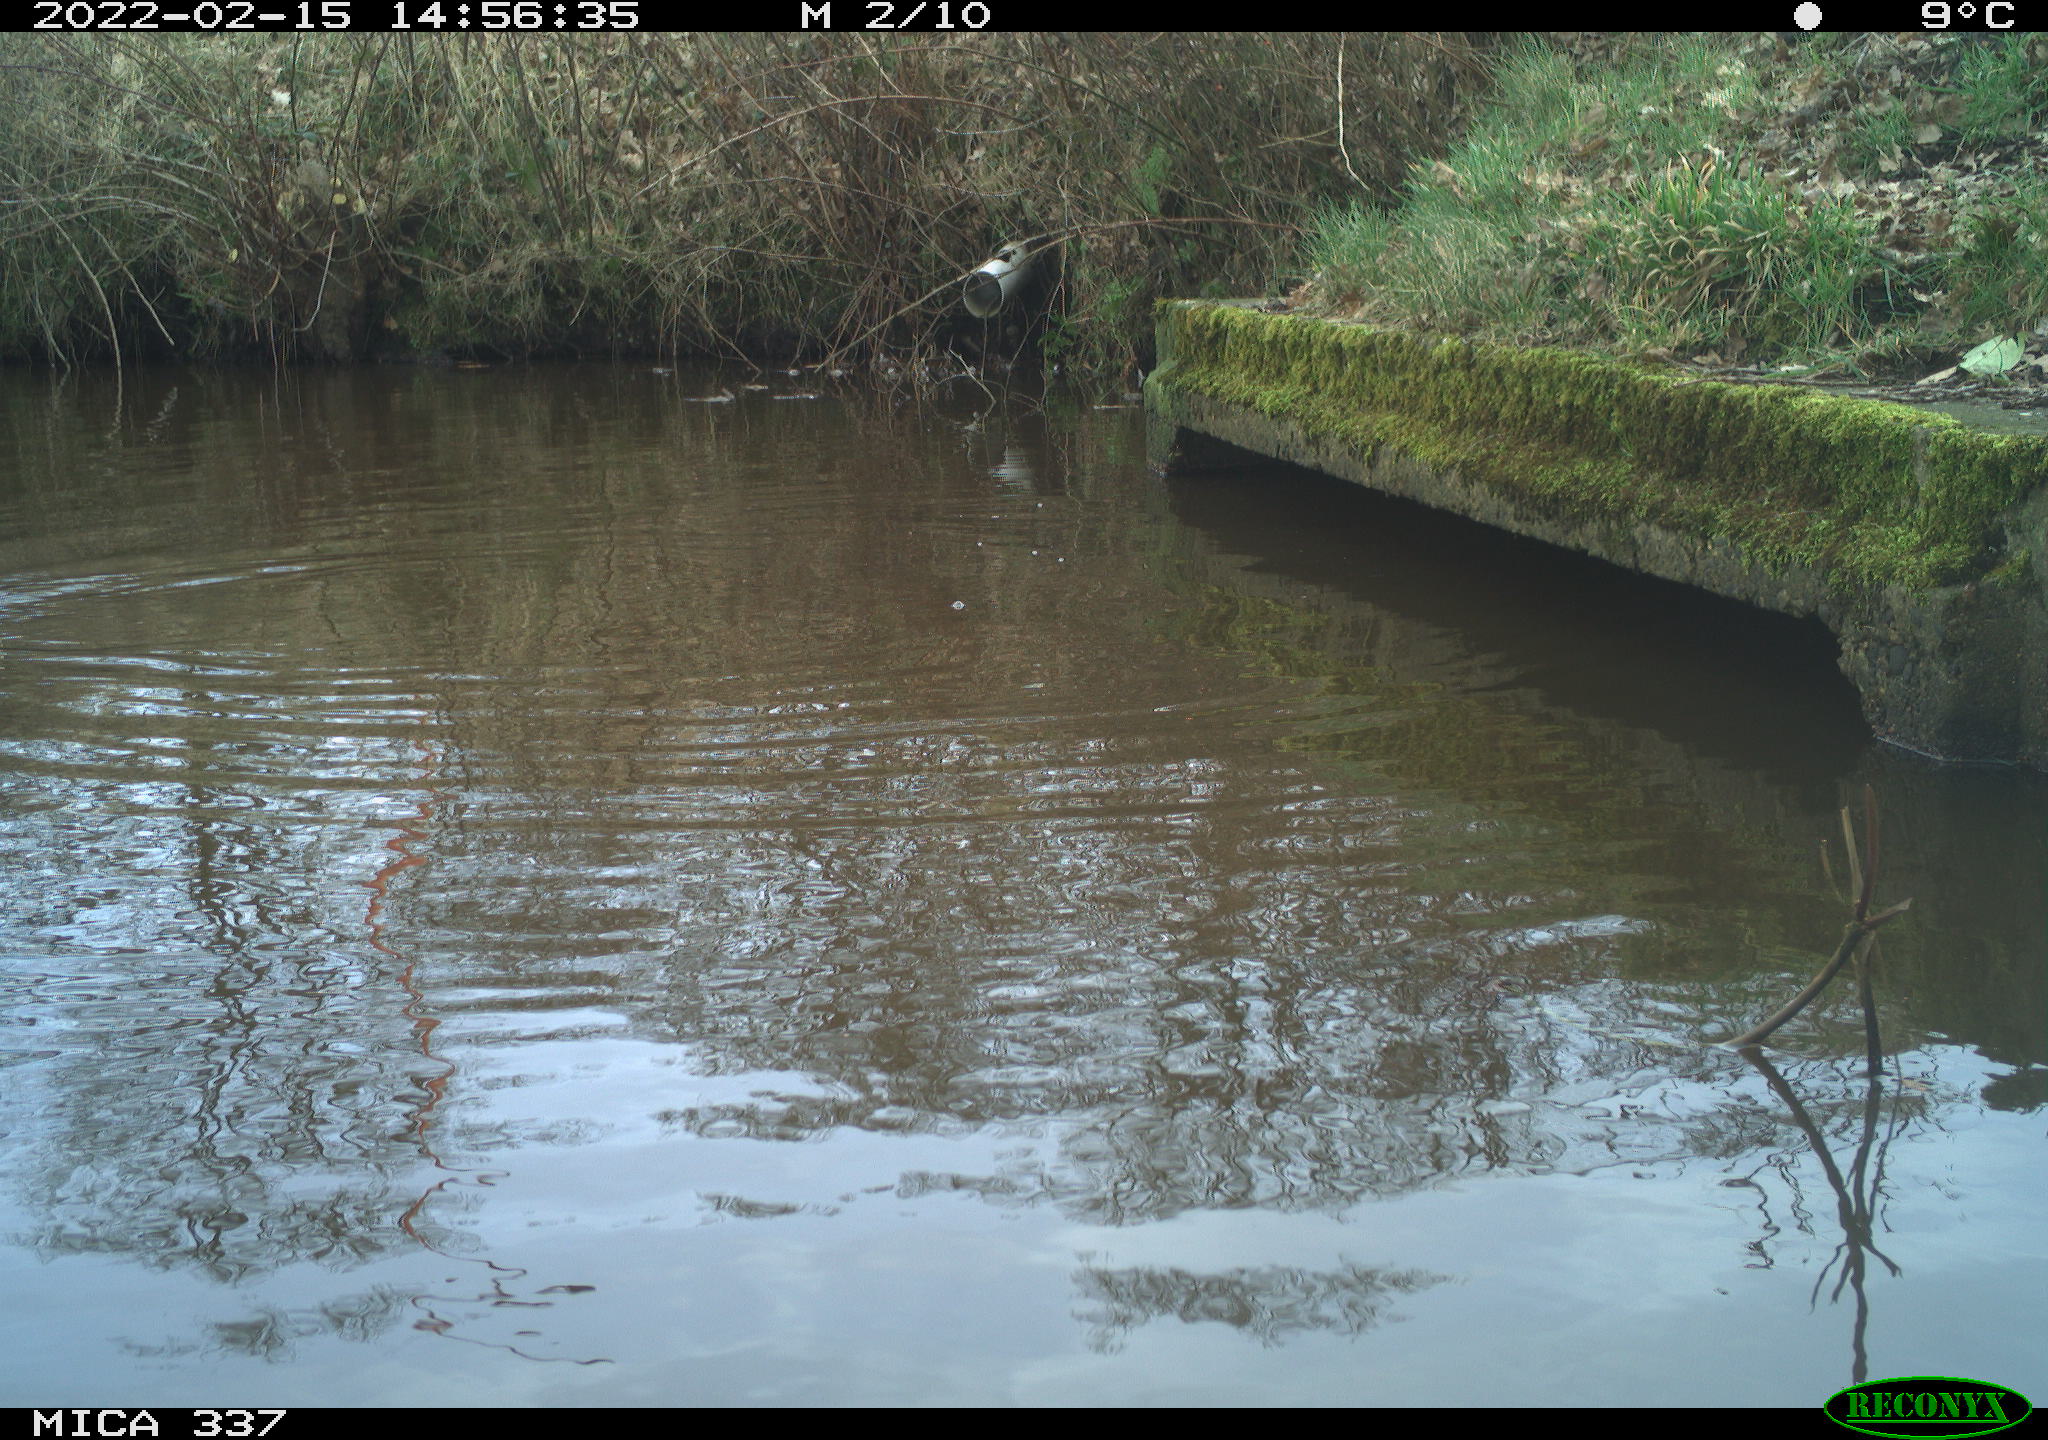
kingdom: Animalia
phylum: Chordata
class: Aves
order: Anseriformes
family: Anatidae
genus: Anas
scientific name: Anas platyrhynchos
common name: Mallard
